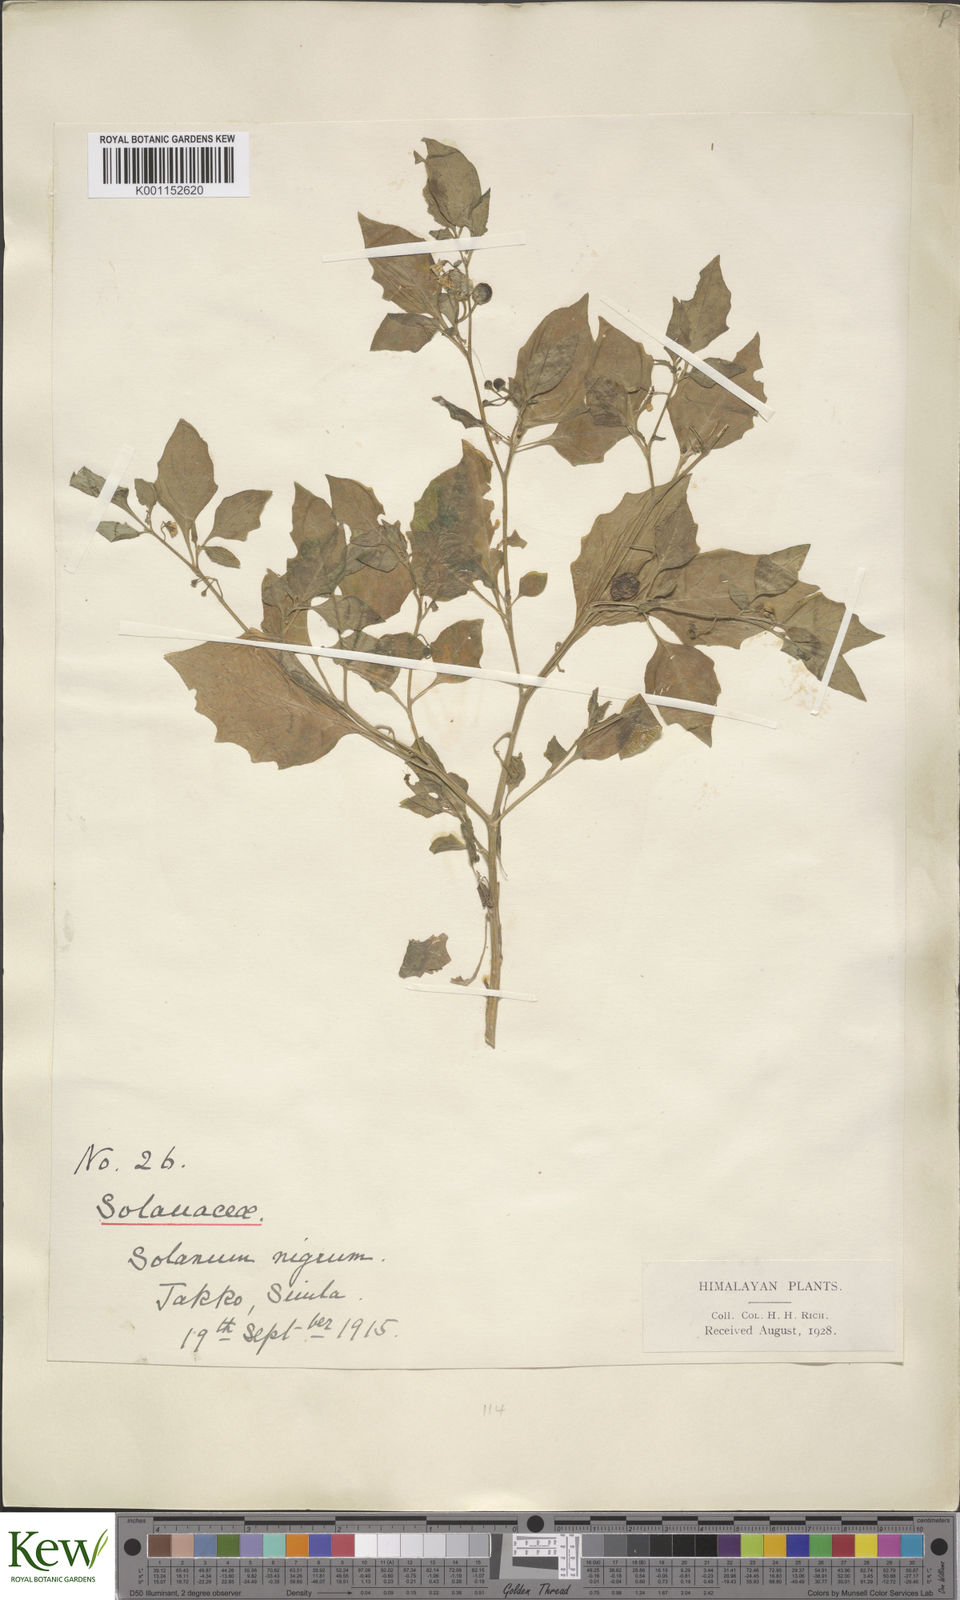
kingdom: Plantae
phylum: Tracheophyta
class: Magnoliopsida
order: Solanales
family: Solanaceae
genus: Solanum
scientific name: Solanum nigrum
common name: Black nightshade
